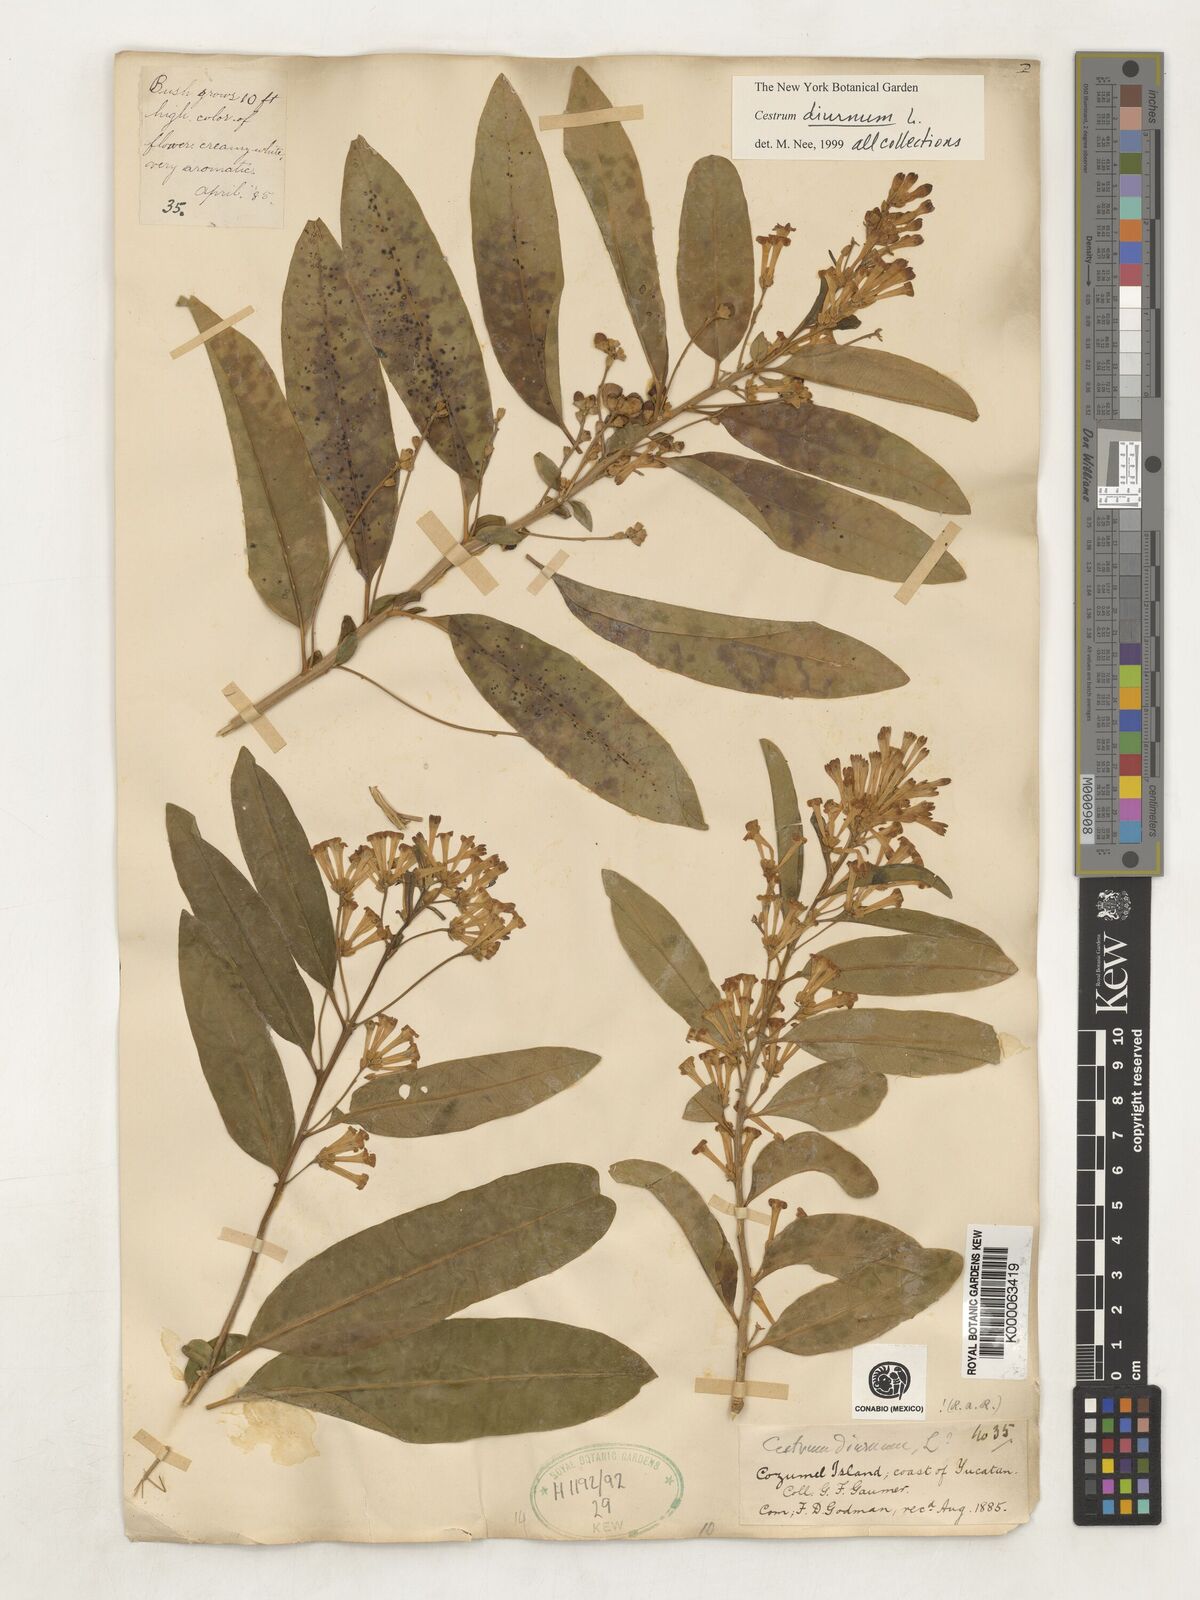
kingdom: Plantae
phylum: Tracheophyta
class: Magnoliopsida
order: Solanales
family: Solanaceae
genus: Cestrum
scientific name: Cestrum diurnum
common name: Day jessamine
